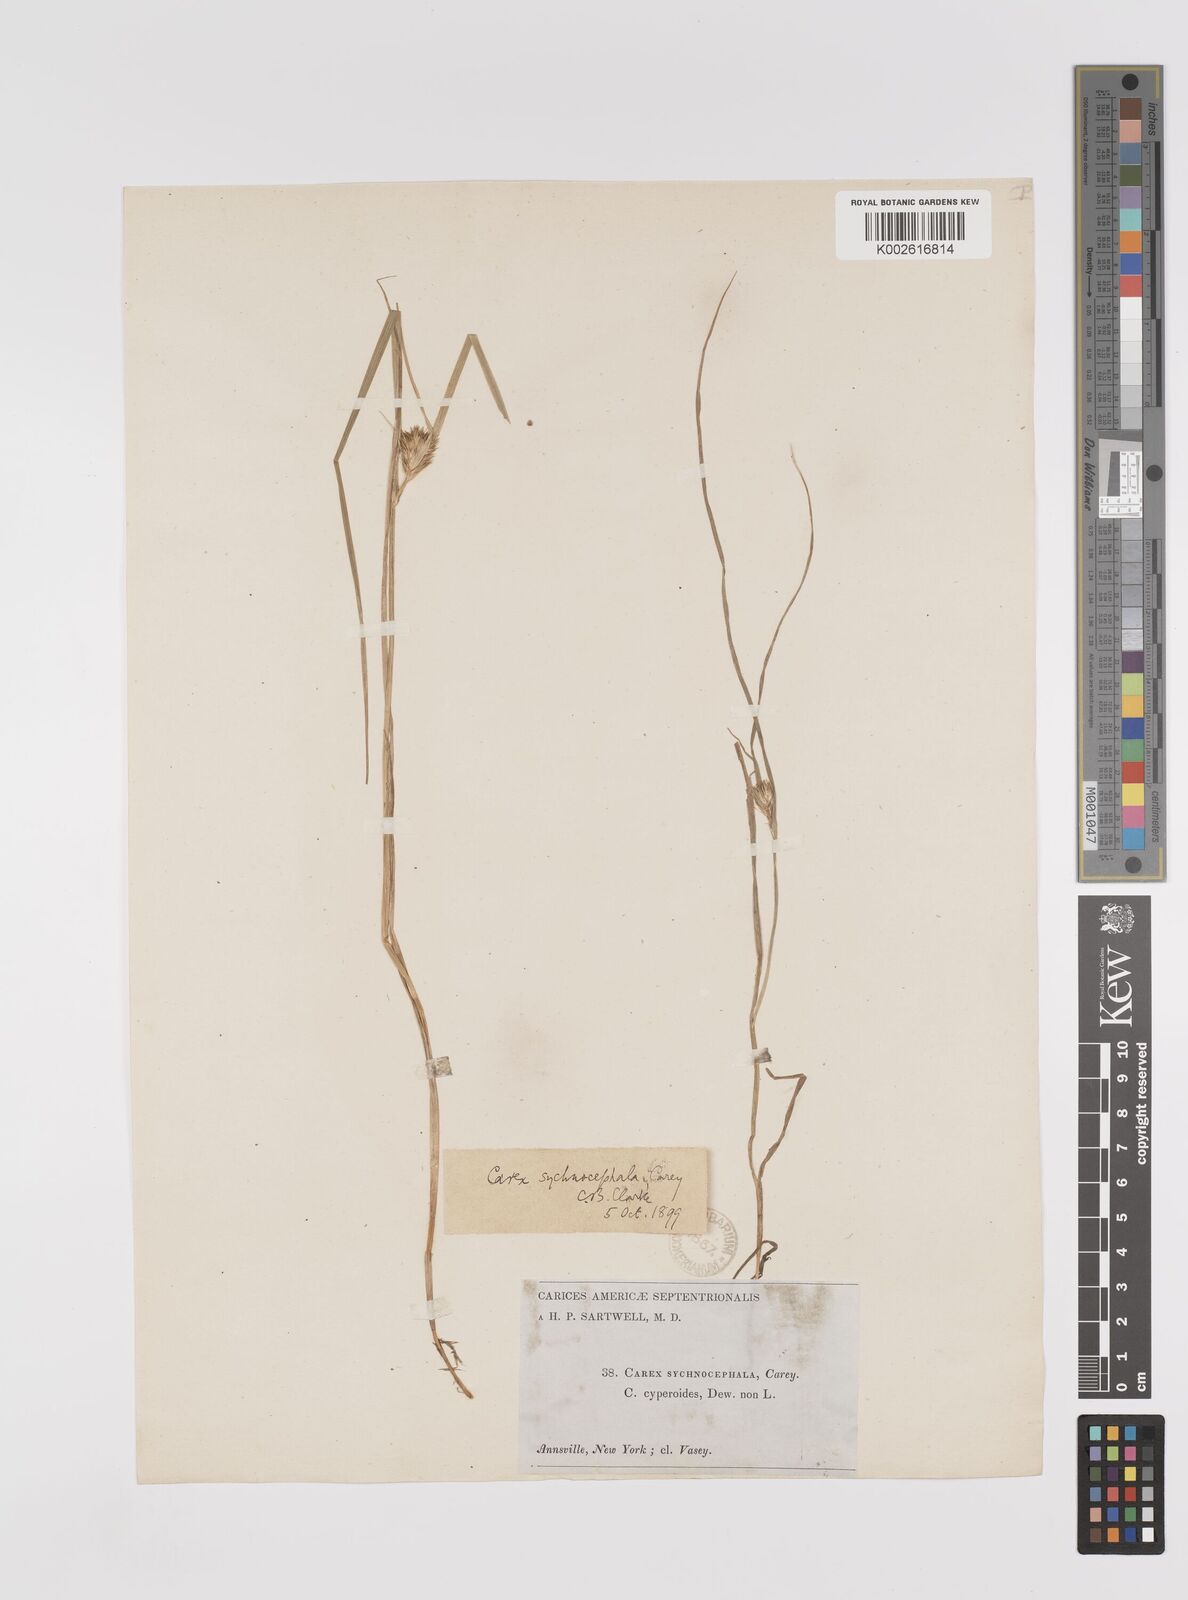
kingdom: Plantae
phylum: Tracheophyta
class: Liliopsida
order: Poales
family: Cyperaceae
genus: Carex
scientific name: Carex sychnocephala
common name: Dense long-beaked sedge
